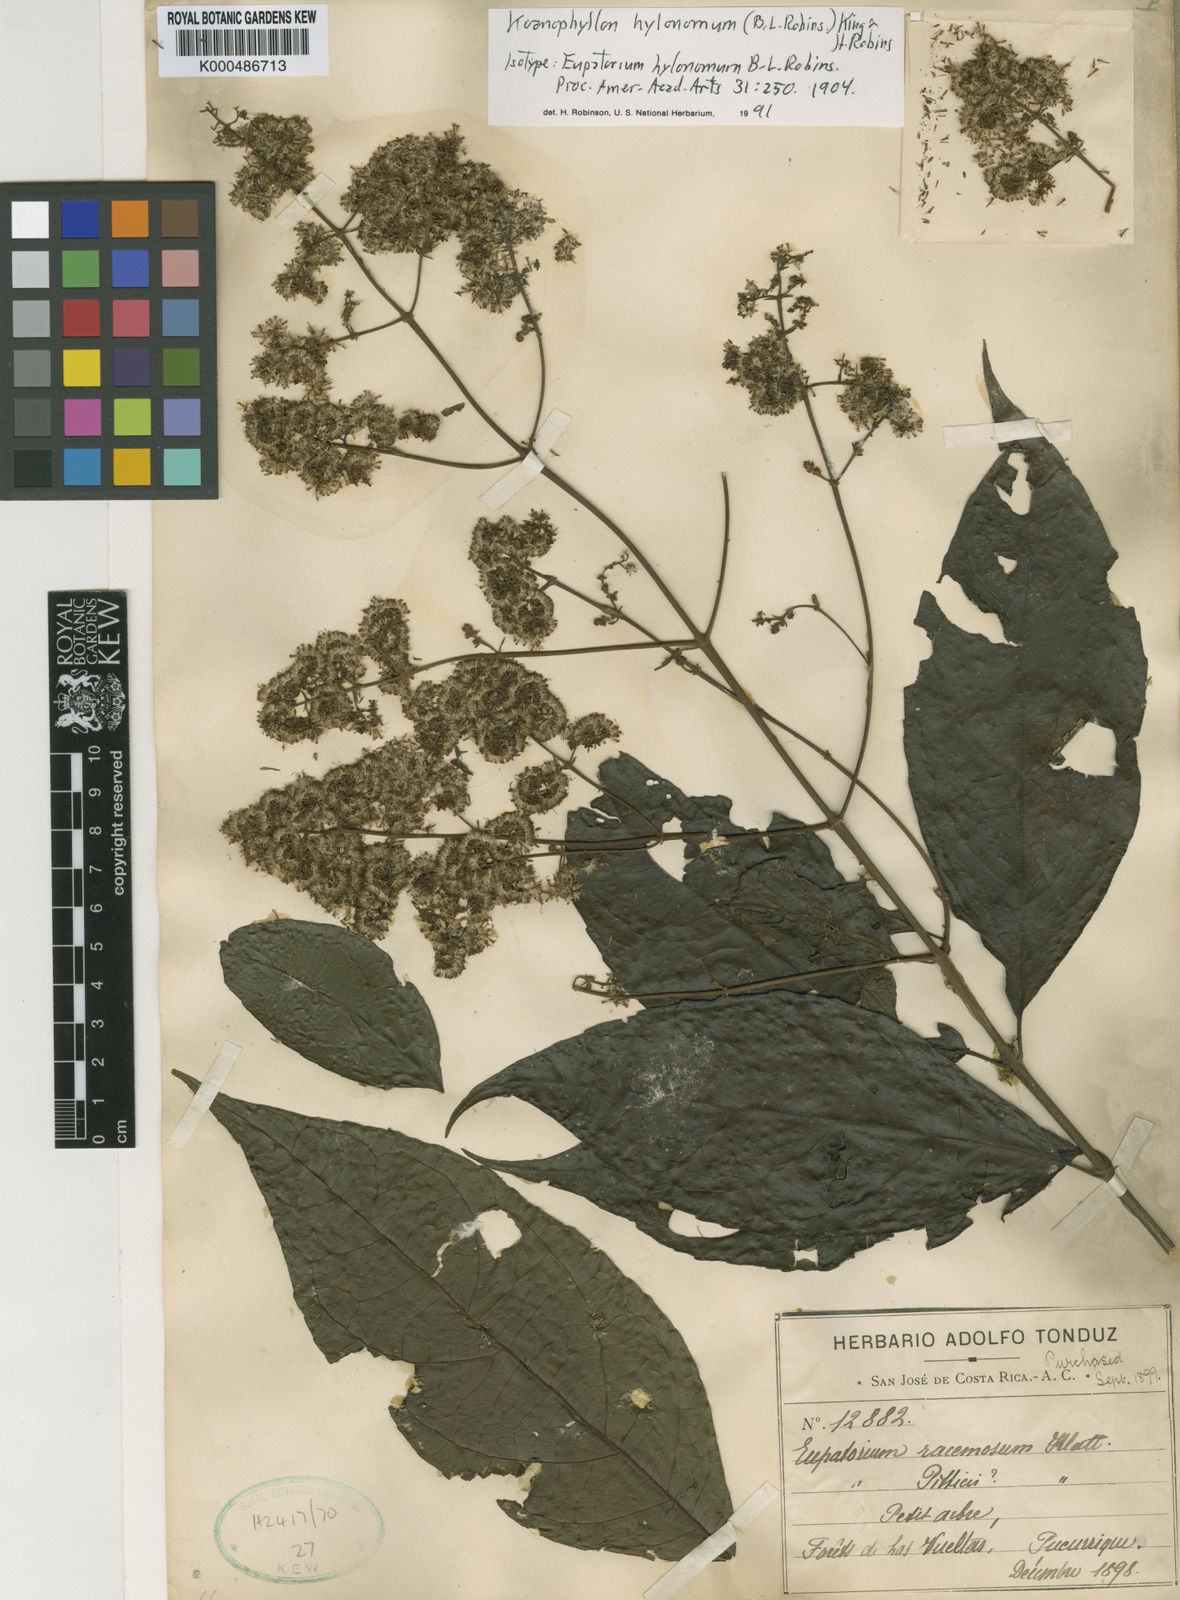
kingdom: Plantae
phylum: Tracheophyta
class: Magnoliopsida
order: Asterales
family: Asteraceae
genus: Koanophyllon
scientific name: Koanophyllon hylonomum
